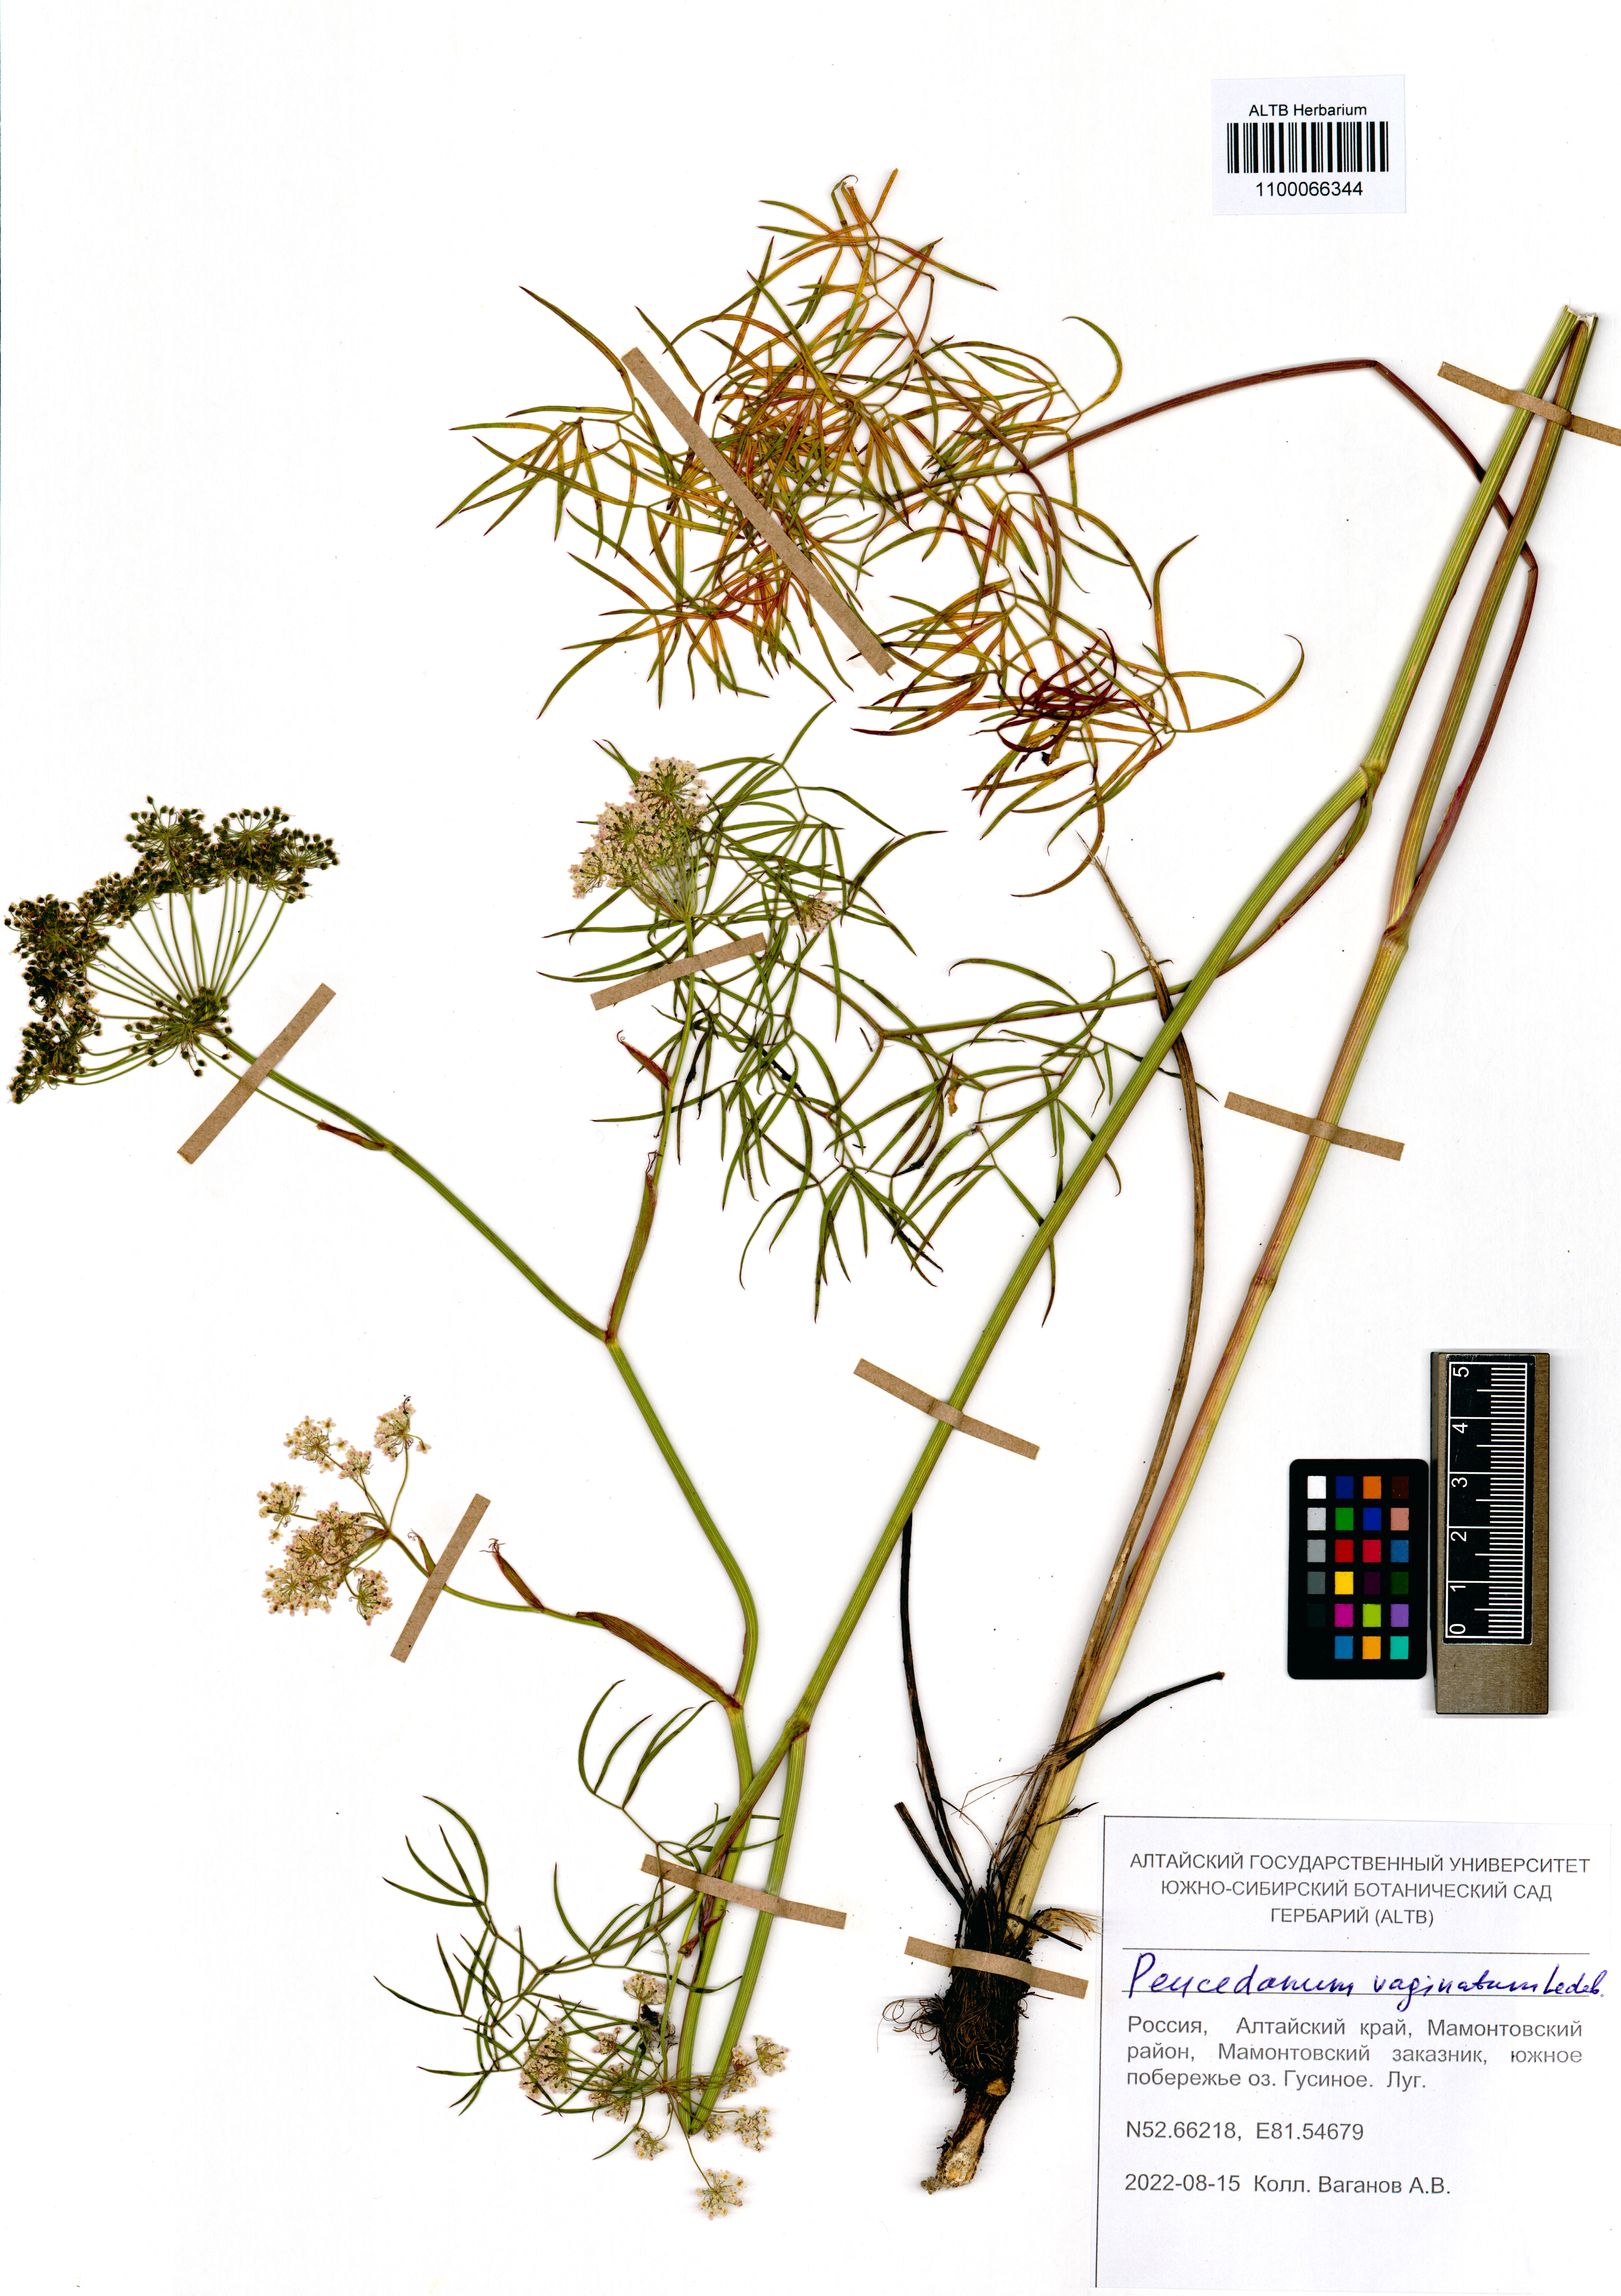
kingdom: Plantae
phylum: Tracheophyta
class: Magnoliopsida
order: Apiales
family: Apiaceae
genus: Peucedanum
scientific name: Peucedanum vaginatum
